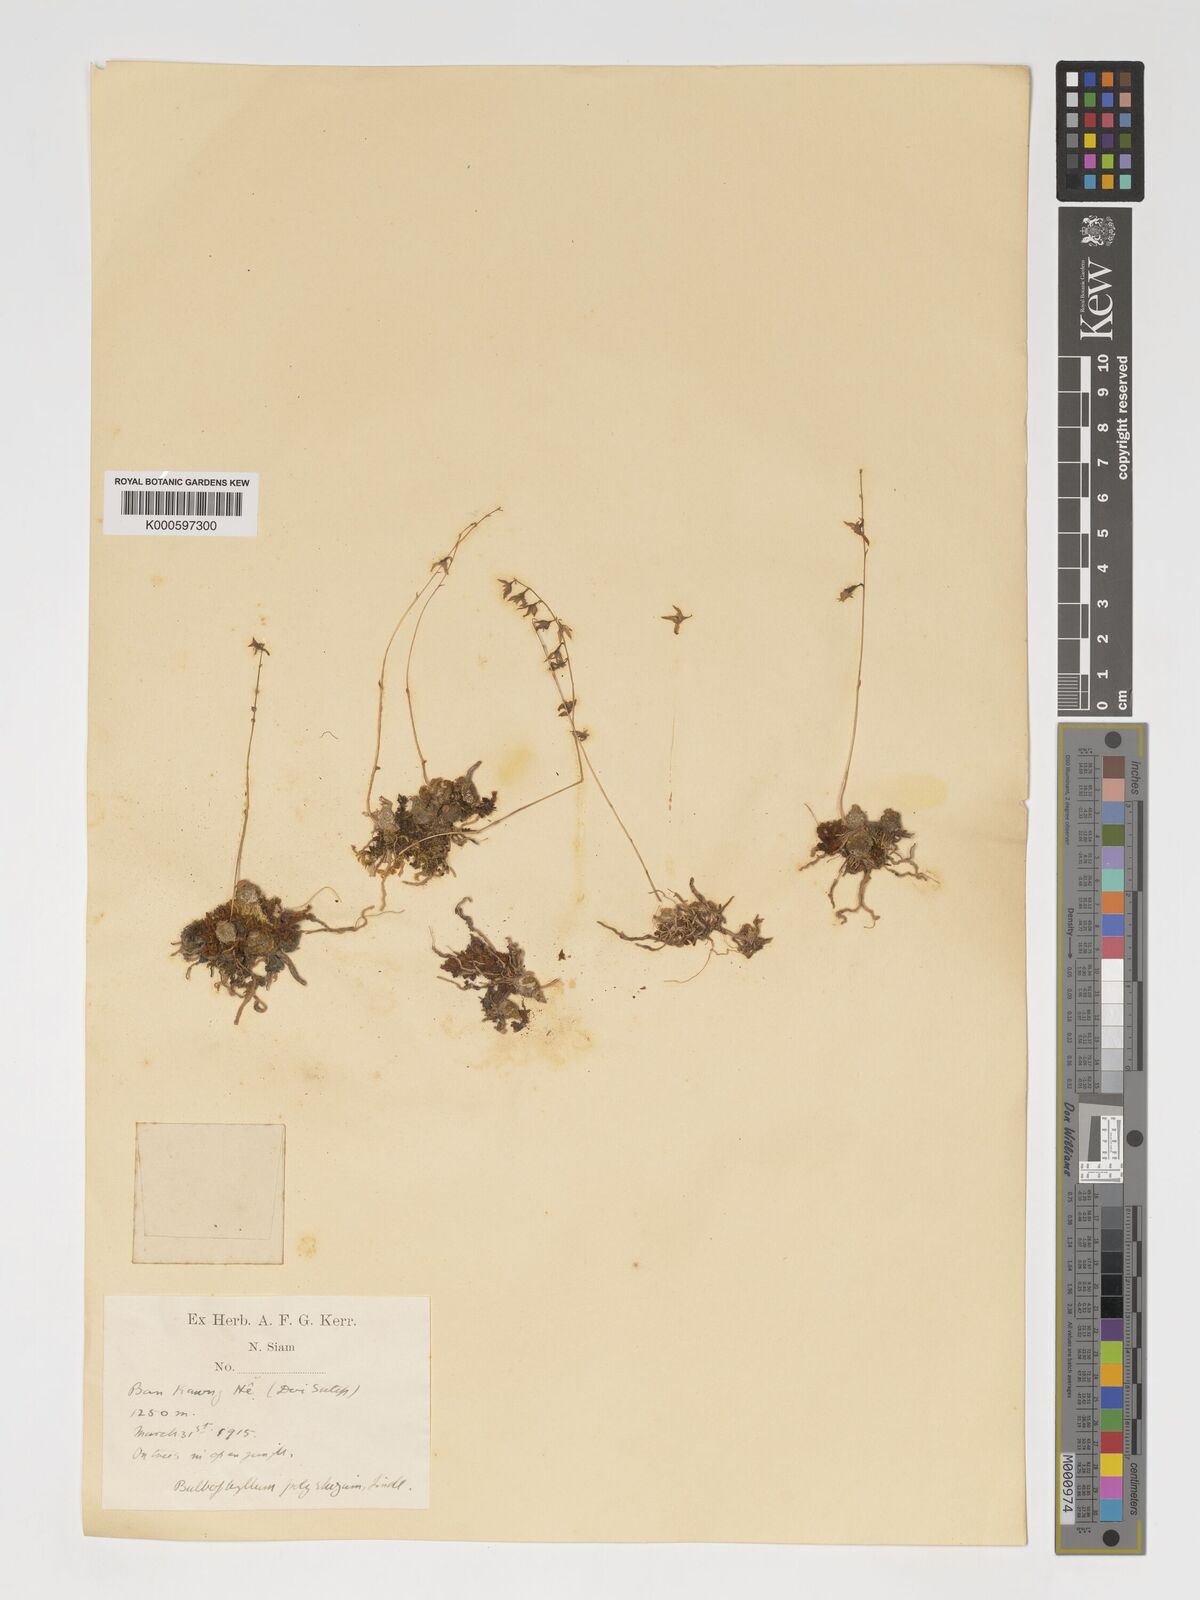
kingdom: Plantae
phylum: Tracheophyta
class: Liliopsida
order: Asparagales
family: Orchidaceae
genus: Bulbophyllum
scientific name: Bulbophyllum polyrrhizum
